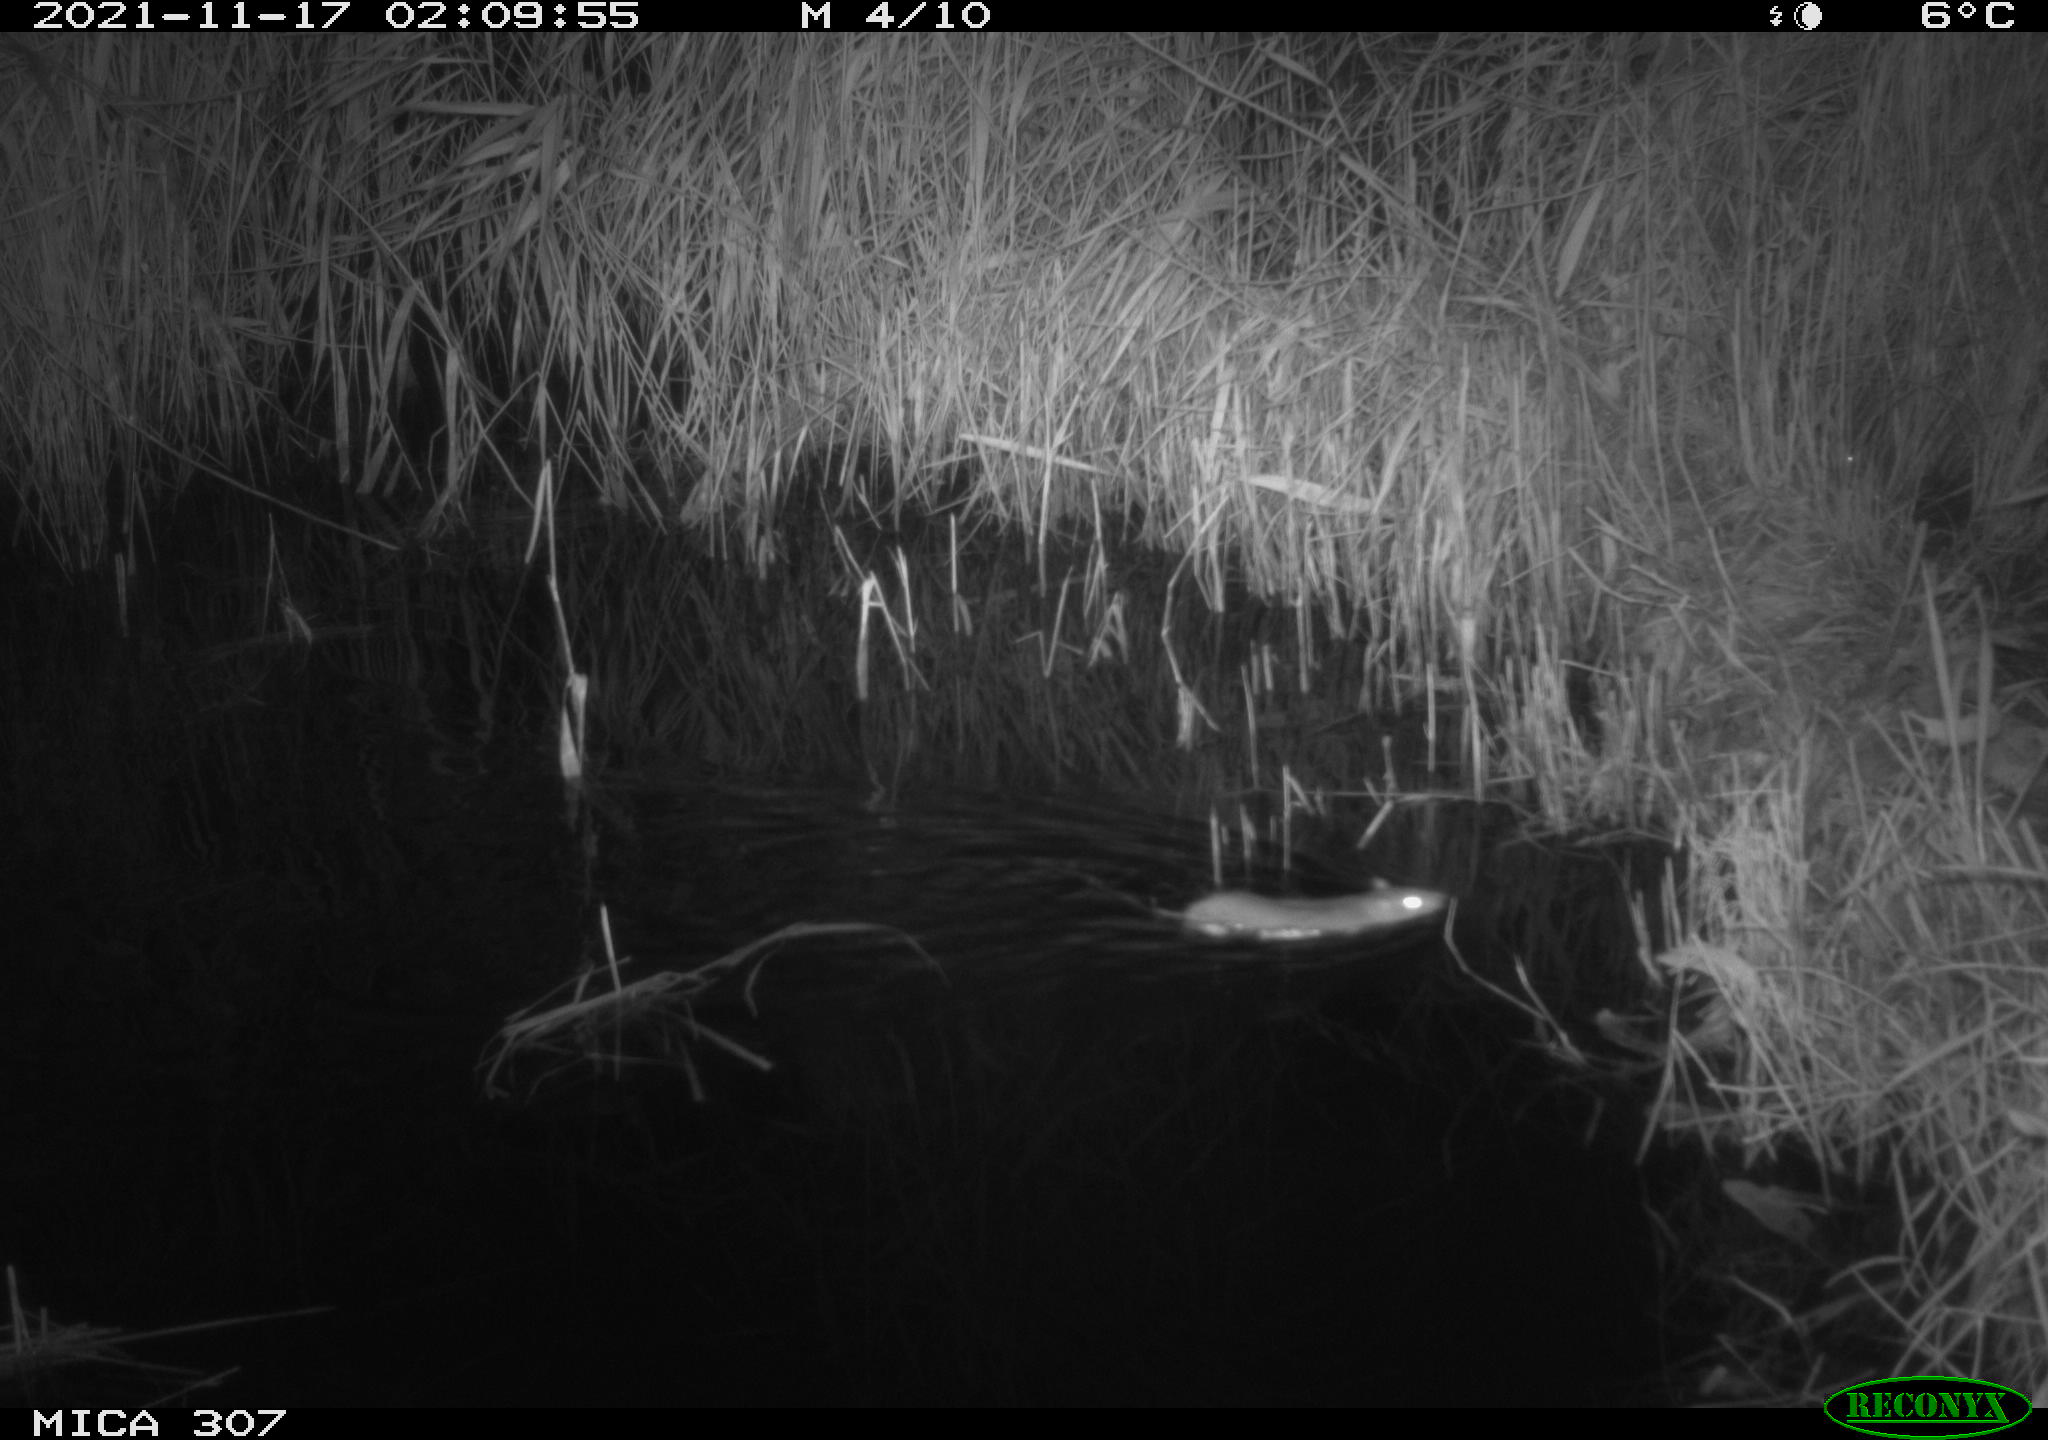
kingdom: Animalia
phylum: Chordata
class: Mammalia
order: Rodentia
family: Muridae
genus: Rattus
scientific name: Rattus norvegicus
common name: Brown rat
